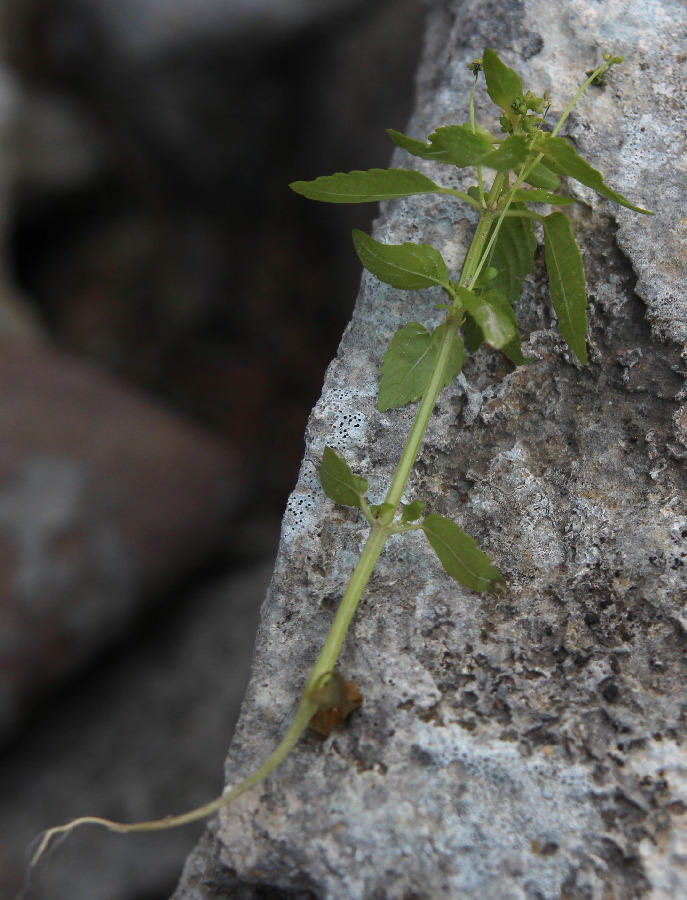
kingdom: Plantae
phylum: Tracheophyta
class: Magnoliopsida
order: Rosales
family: Urticaceae
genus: Parietaria
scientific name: Parietaria judaica
